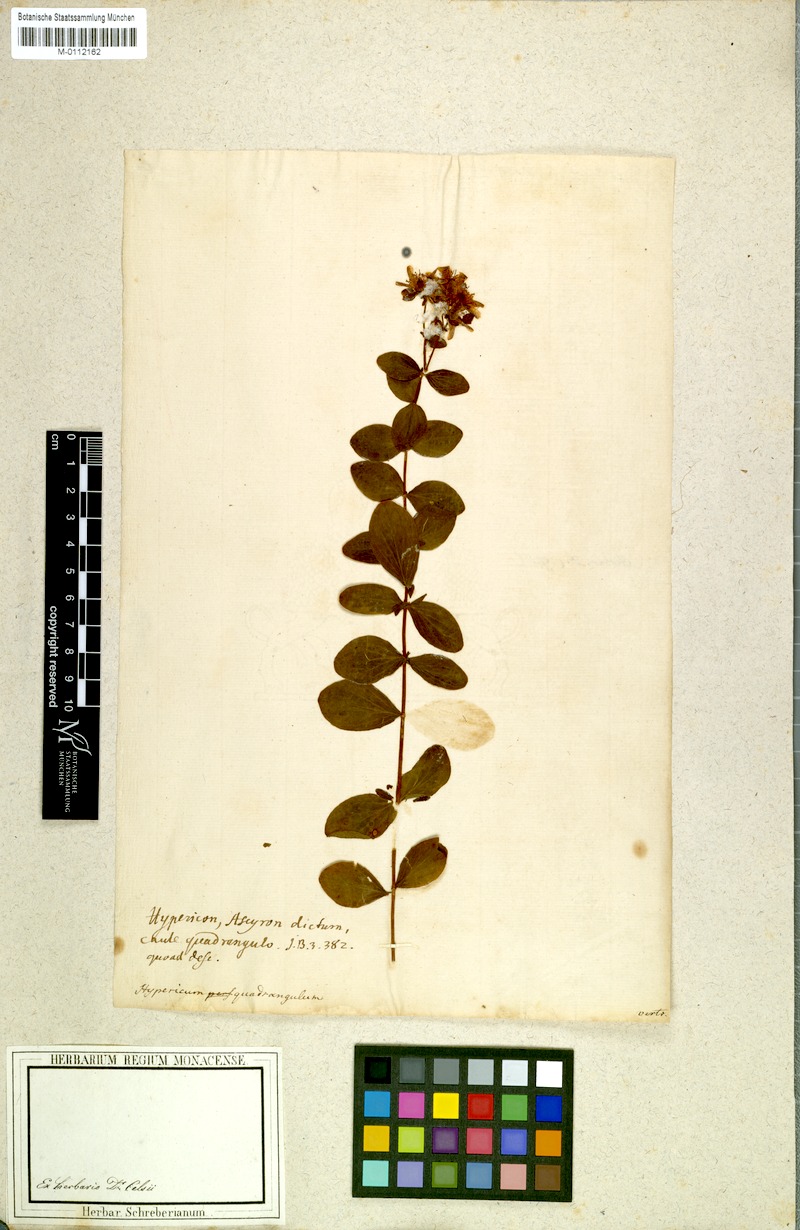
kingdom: Plantae
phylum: Tracheophyta
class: Magnoliopsida
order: Malpighiales
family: Hypericaceae
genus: Hypericum
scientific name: Hypericum maculatum
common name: Imperforate st. john's-wort
